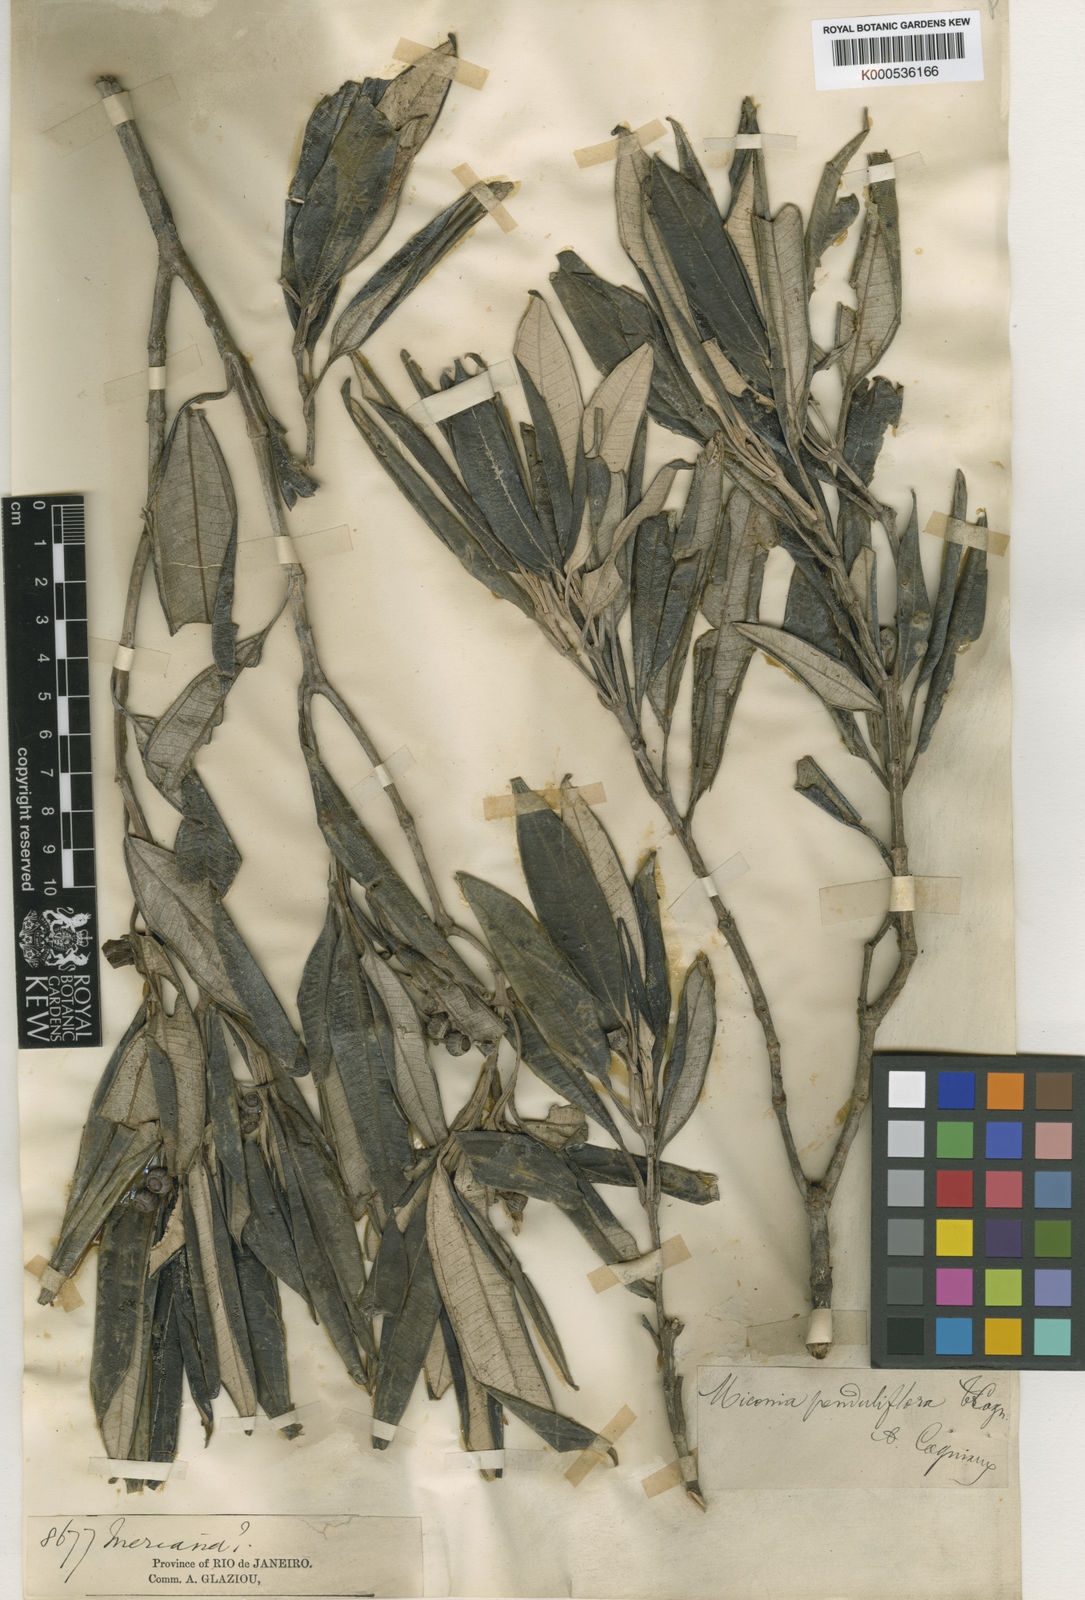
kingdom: Plantae
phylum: Tracheophyta
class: Magnoliopsida
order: Myrtales
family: Melastomataceae
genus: Miconia
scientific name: Miconia penduliflora
